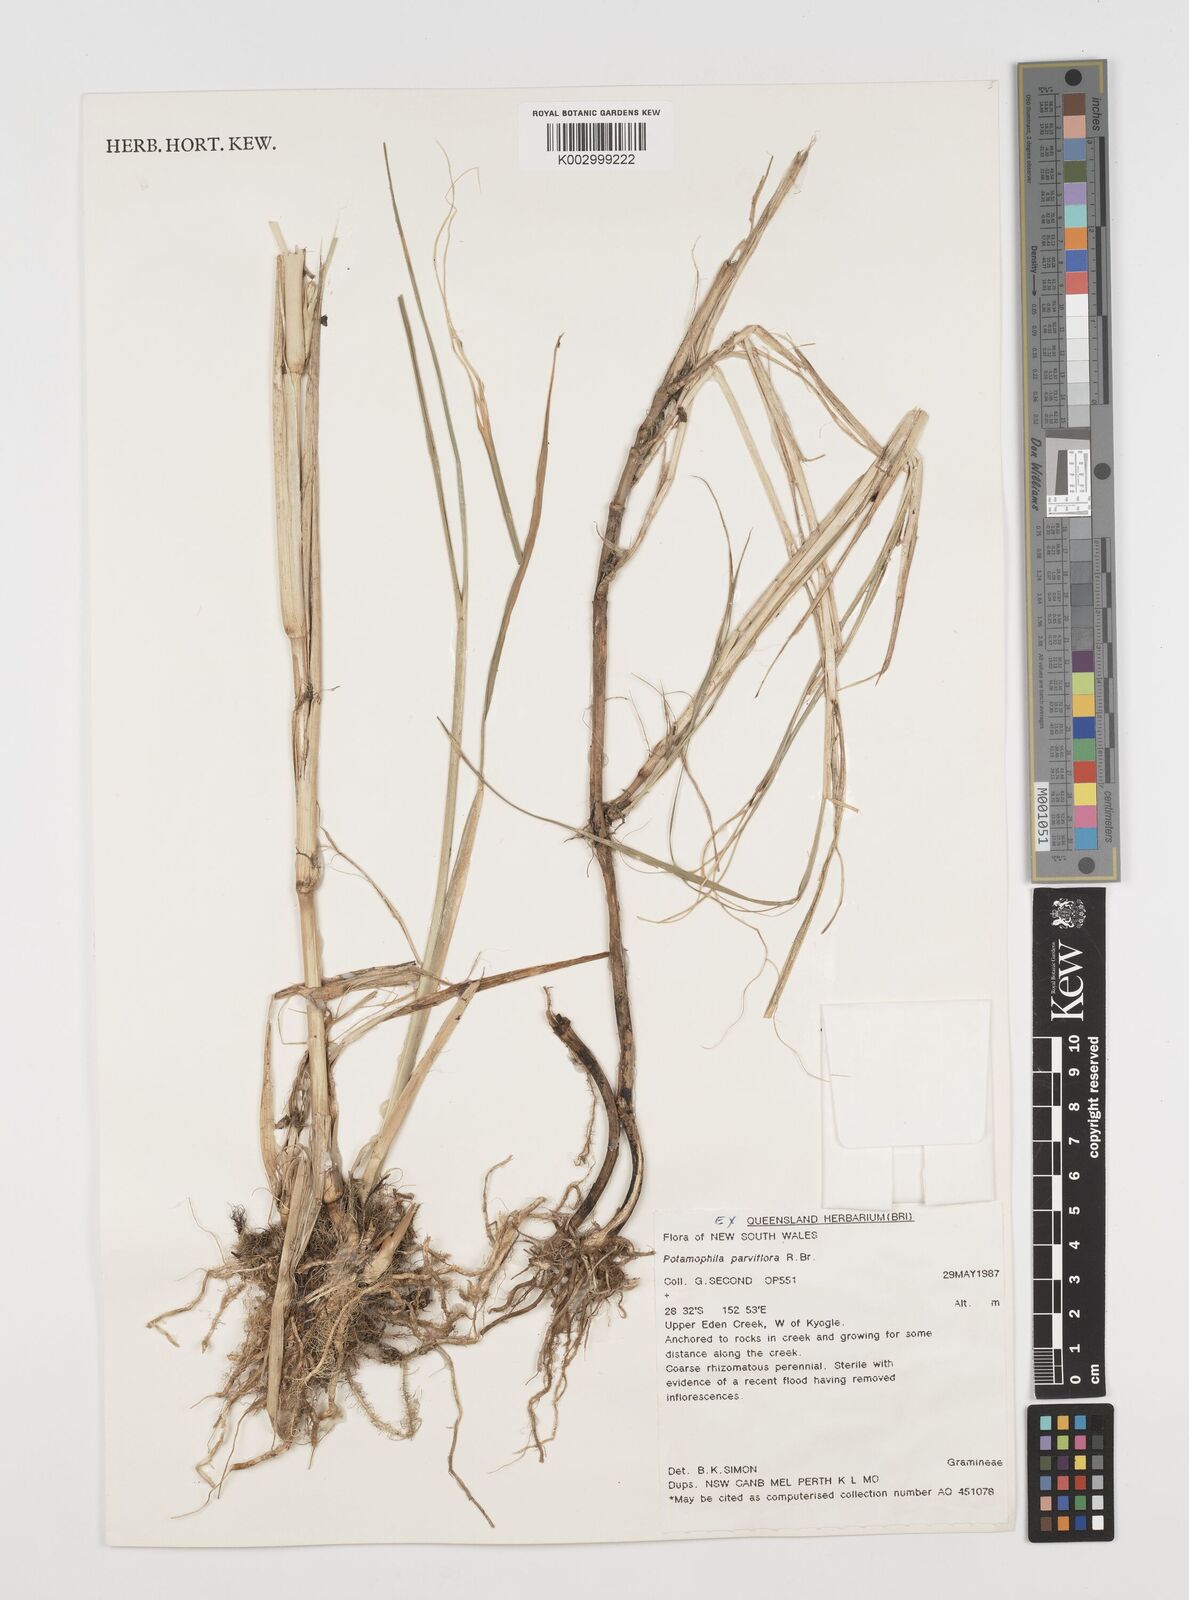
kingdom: Plantae
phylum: Tracheophyta
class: Magnoliopsida
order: Caryophyllales
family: Microteaceae
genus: Microtea
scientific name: Microtea maypurensis
